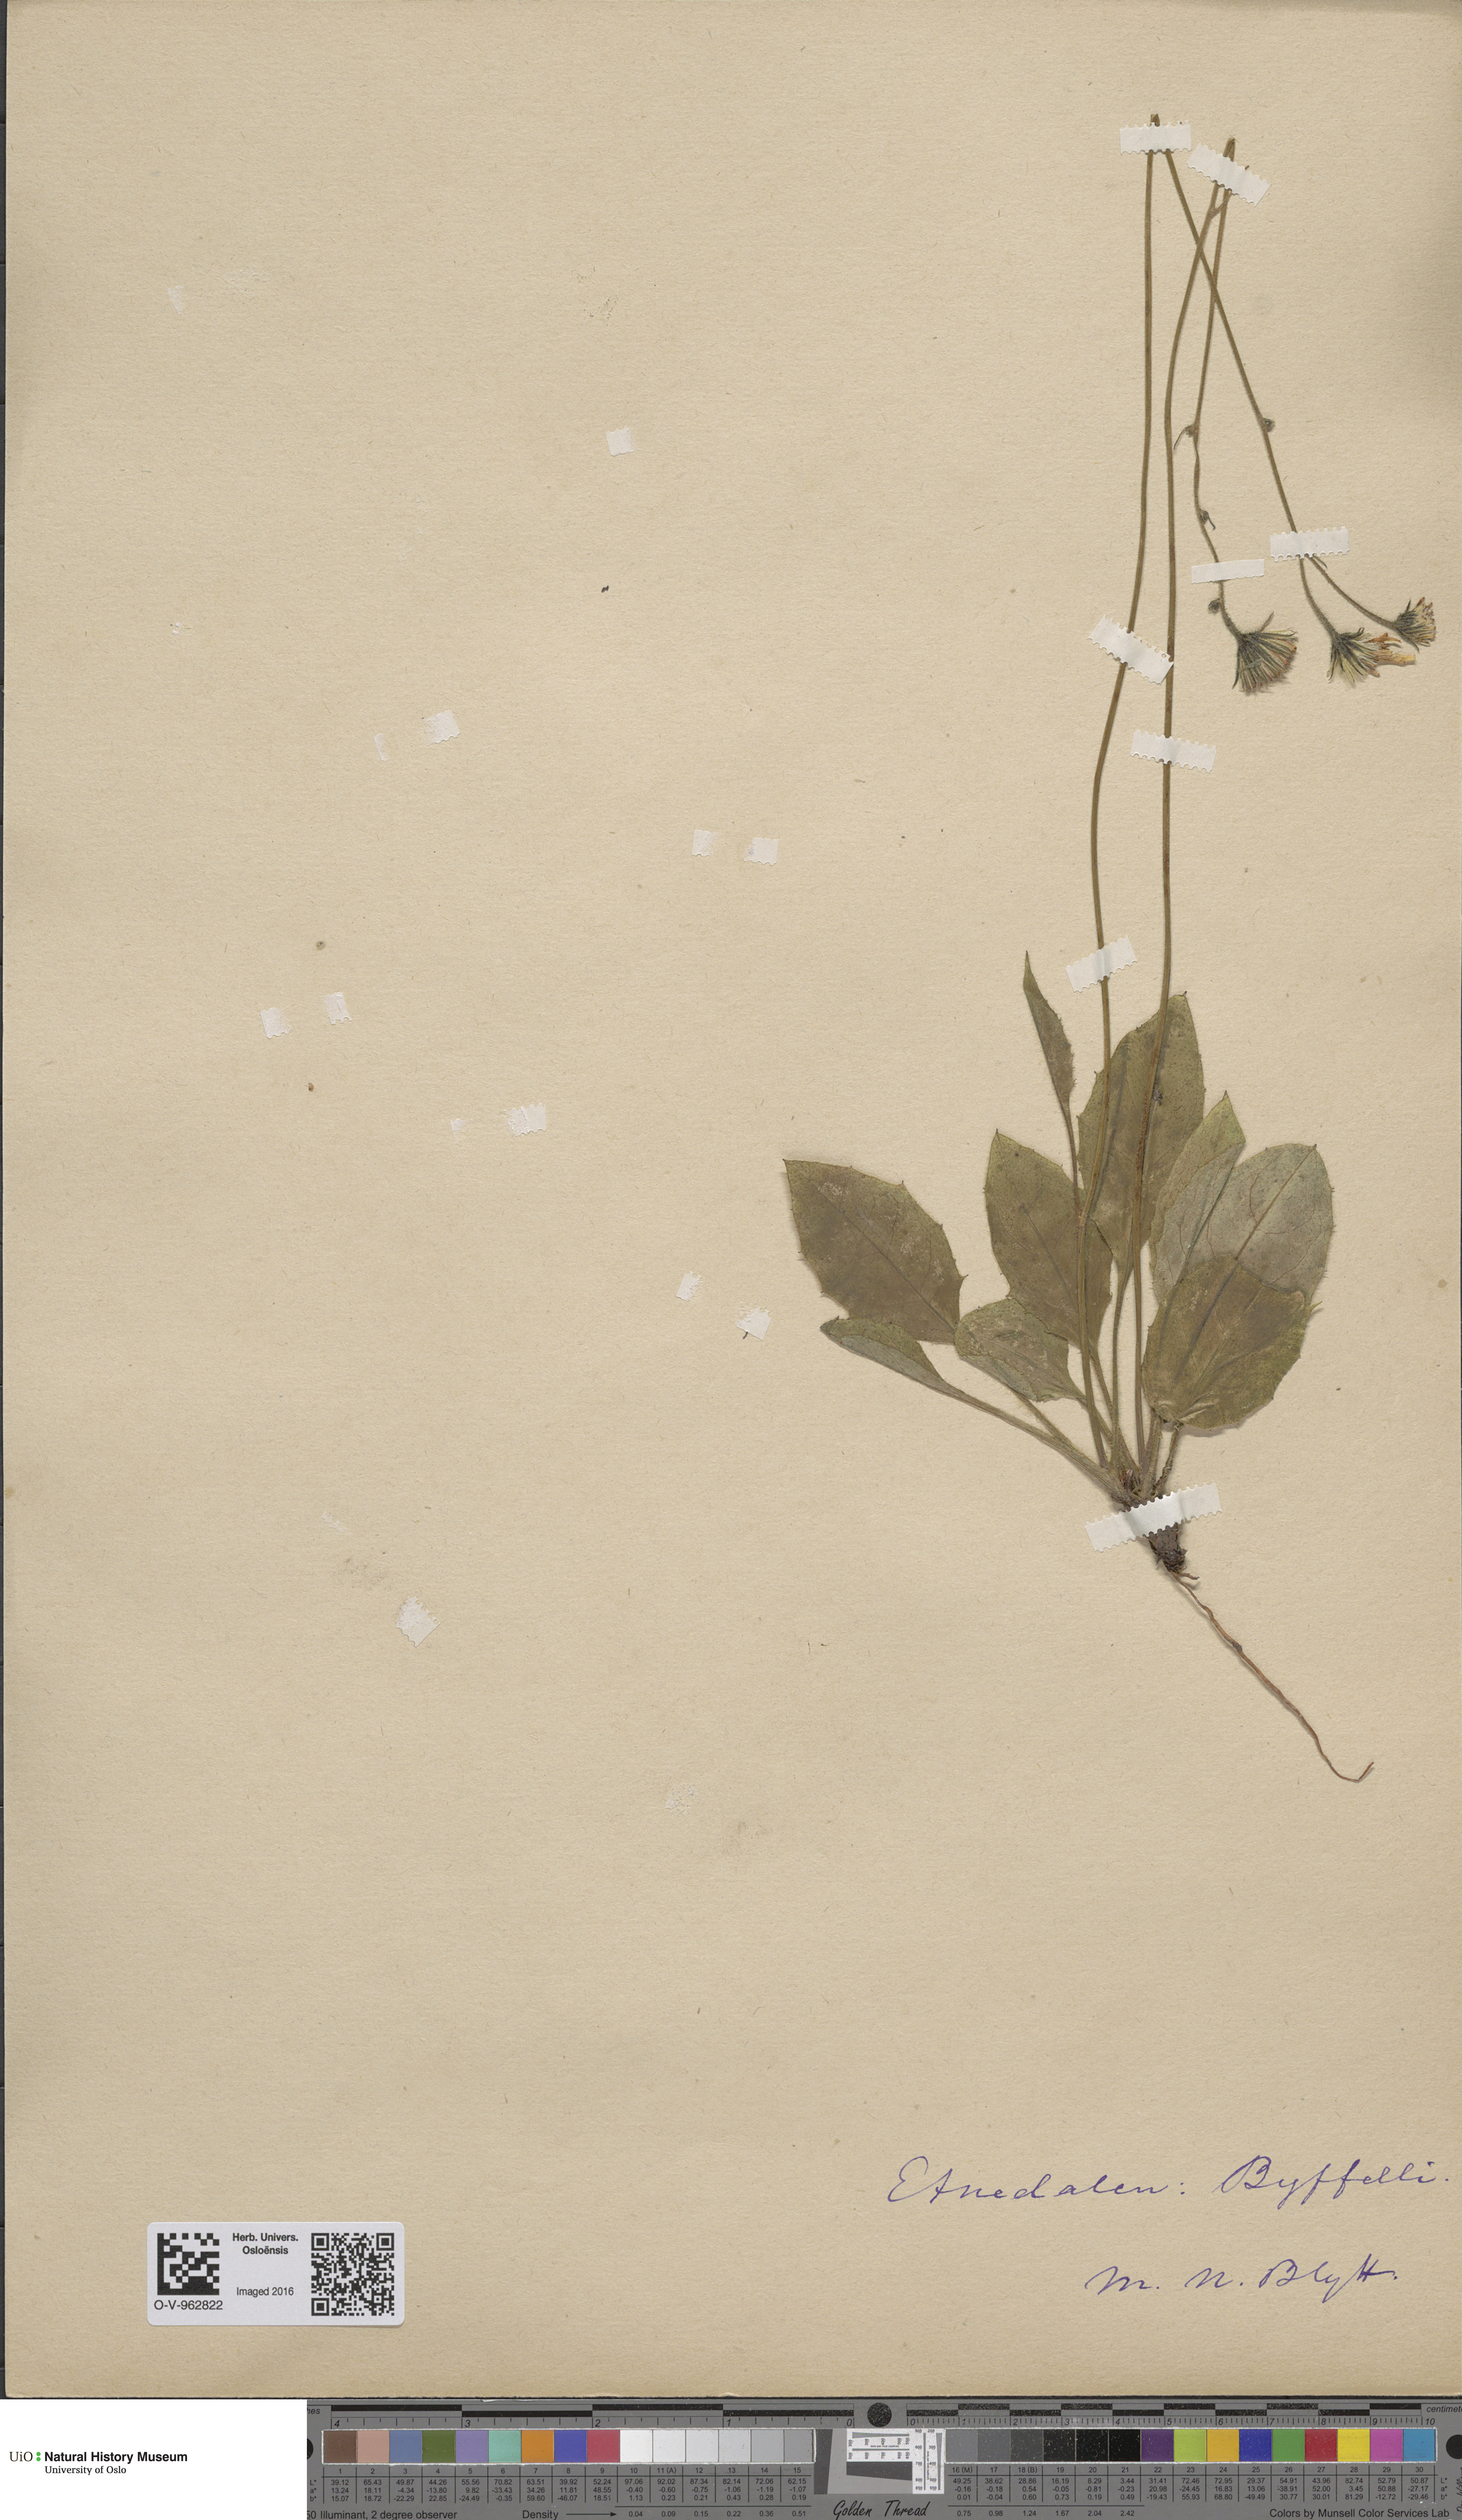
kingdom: Plantae
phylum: Tracheophyta
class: Magnoliopsida
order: Asterales
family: Asteraceae
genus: Hieracium
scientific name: Hieracium
